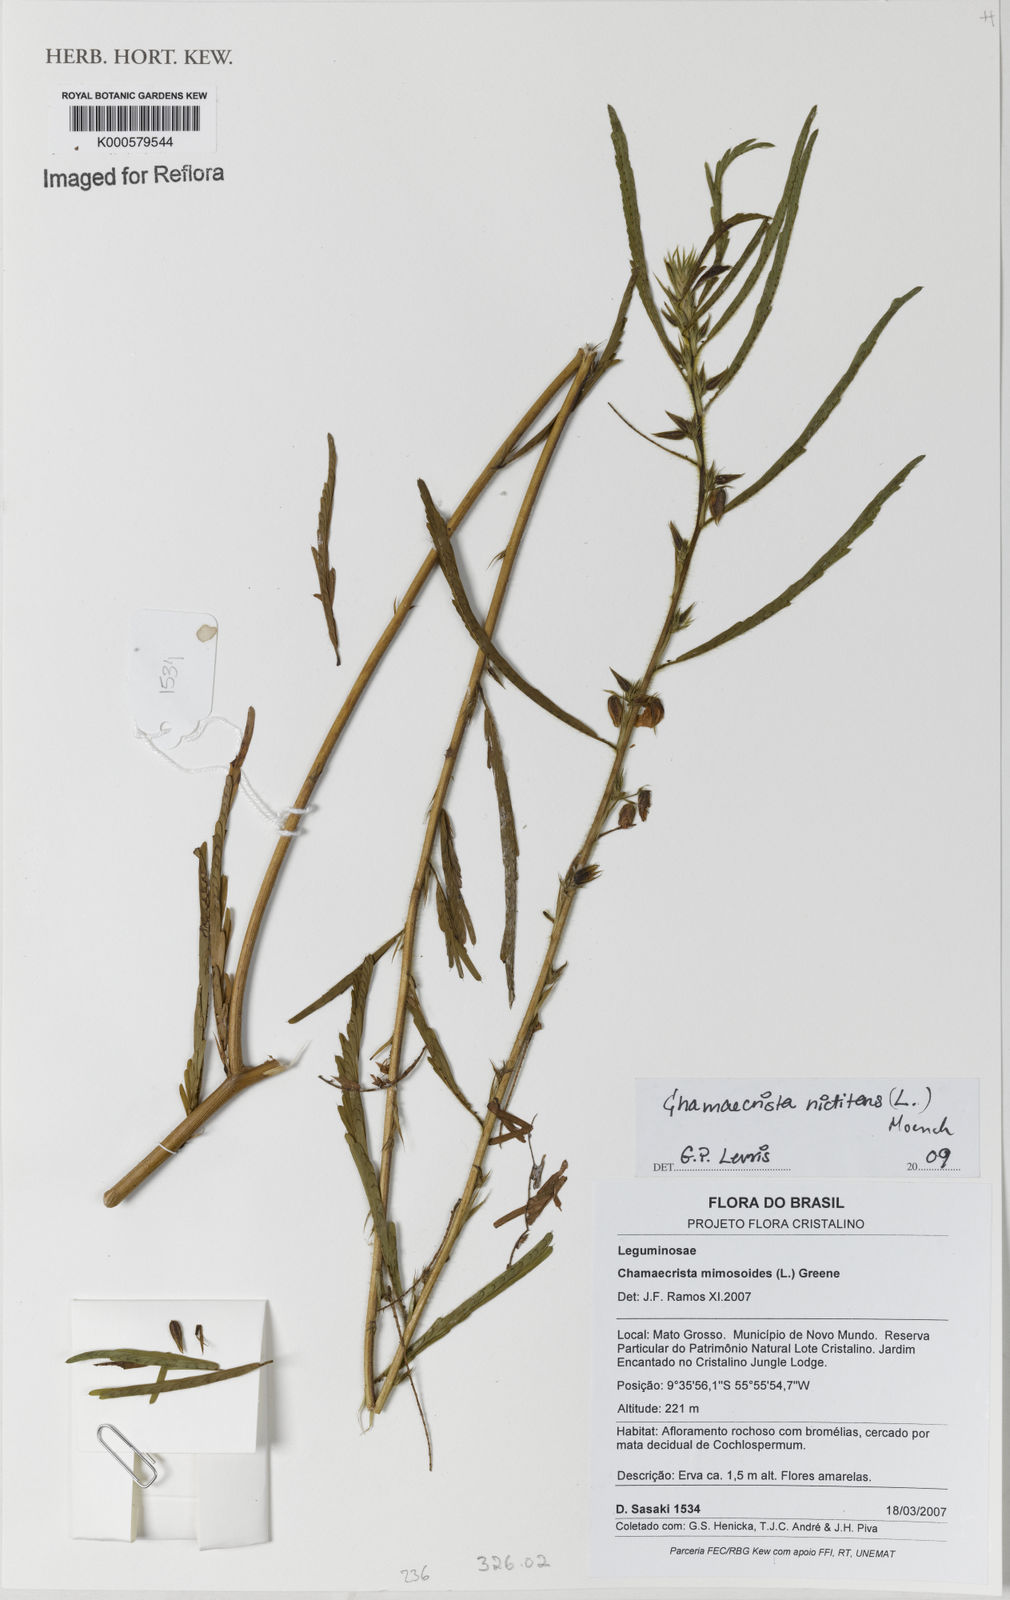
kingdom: Plantae
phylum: Tracheophyta
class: Magnoliopsida
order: Fabales
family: Fabaceae
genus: Chamaecrista
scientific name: Chamaecrista nictitans
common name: Sensitive cassia
